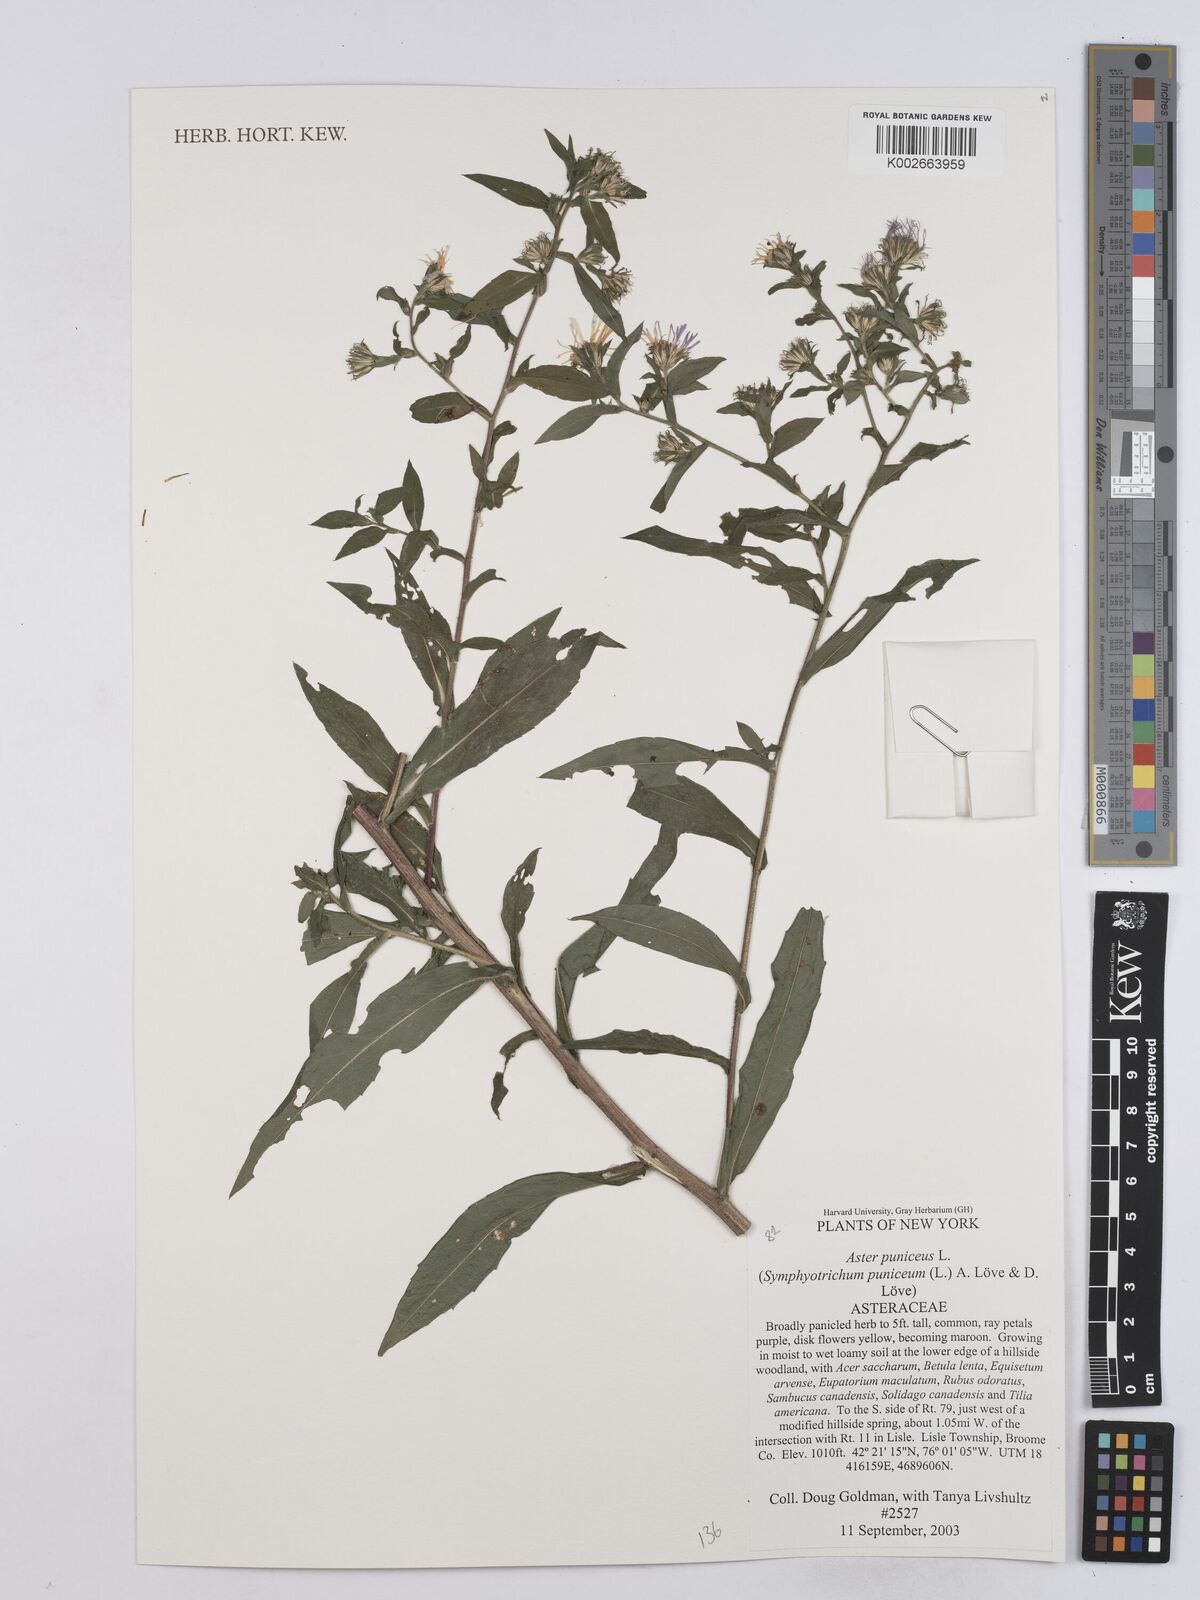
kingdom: Plantae
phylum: Tracheophyta
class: Magnoliopsida
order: Asterales
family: Asteraceae
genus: Symphyotrichum
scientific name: Symphyotrichum puniceum
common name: Bog aster
